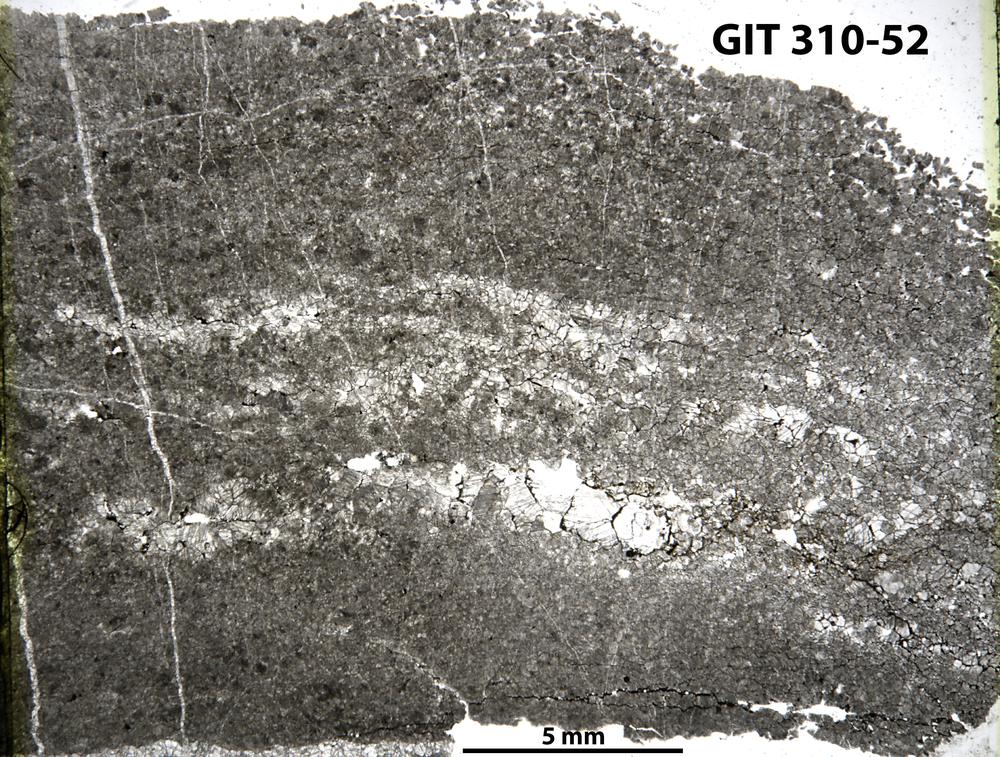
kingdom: Animalia
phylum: Porifera
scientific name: Porifera
